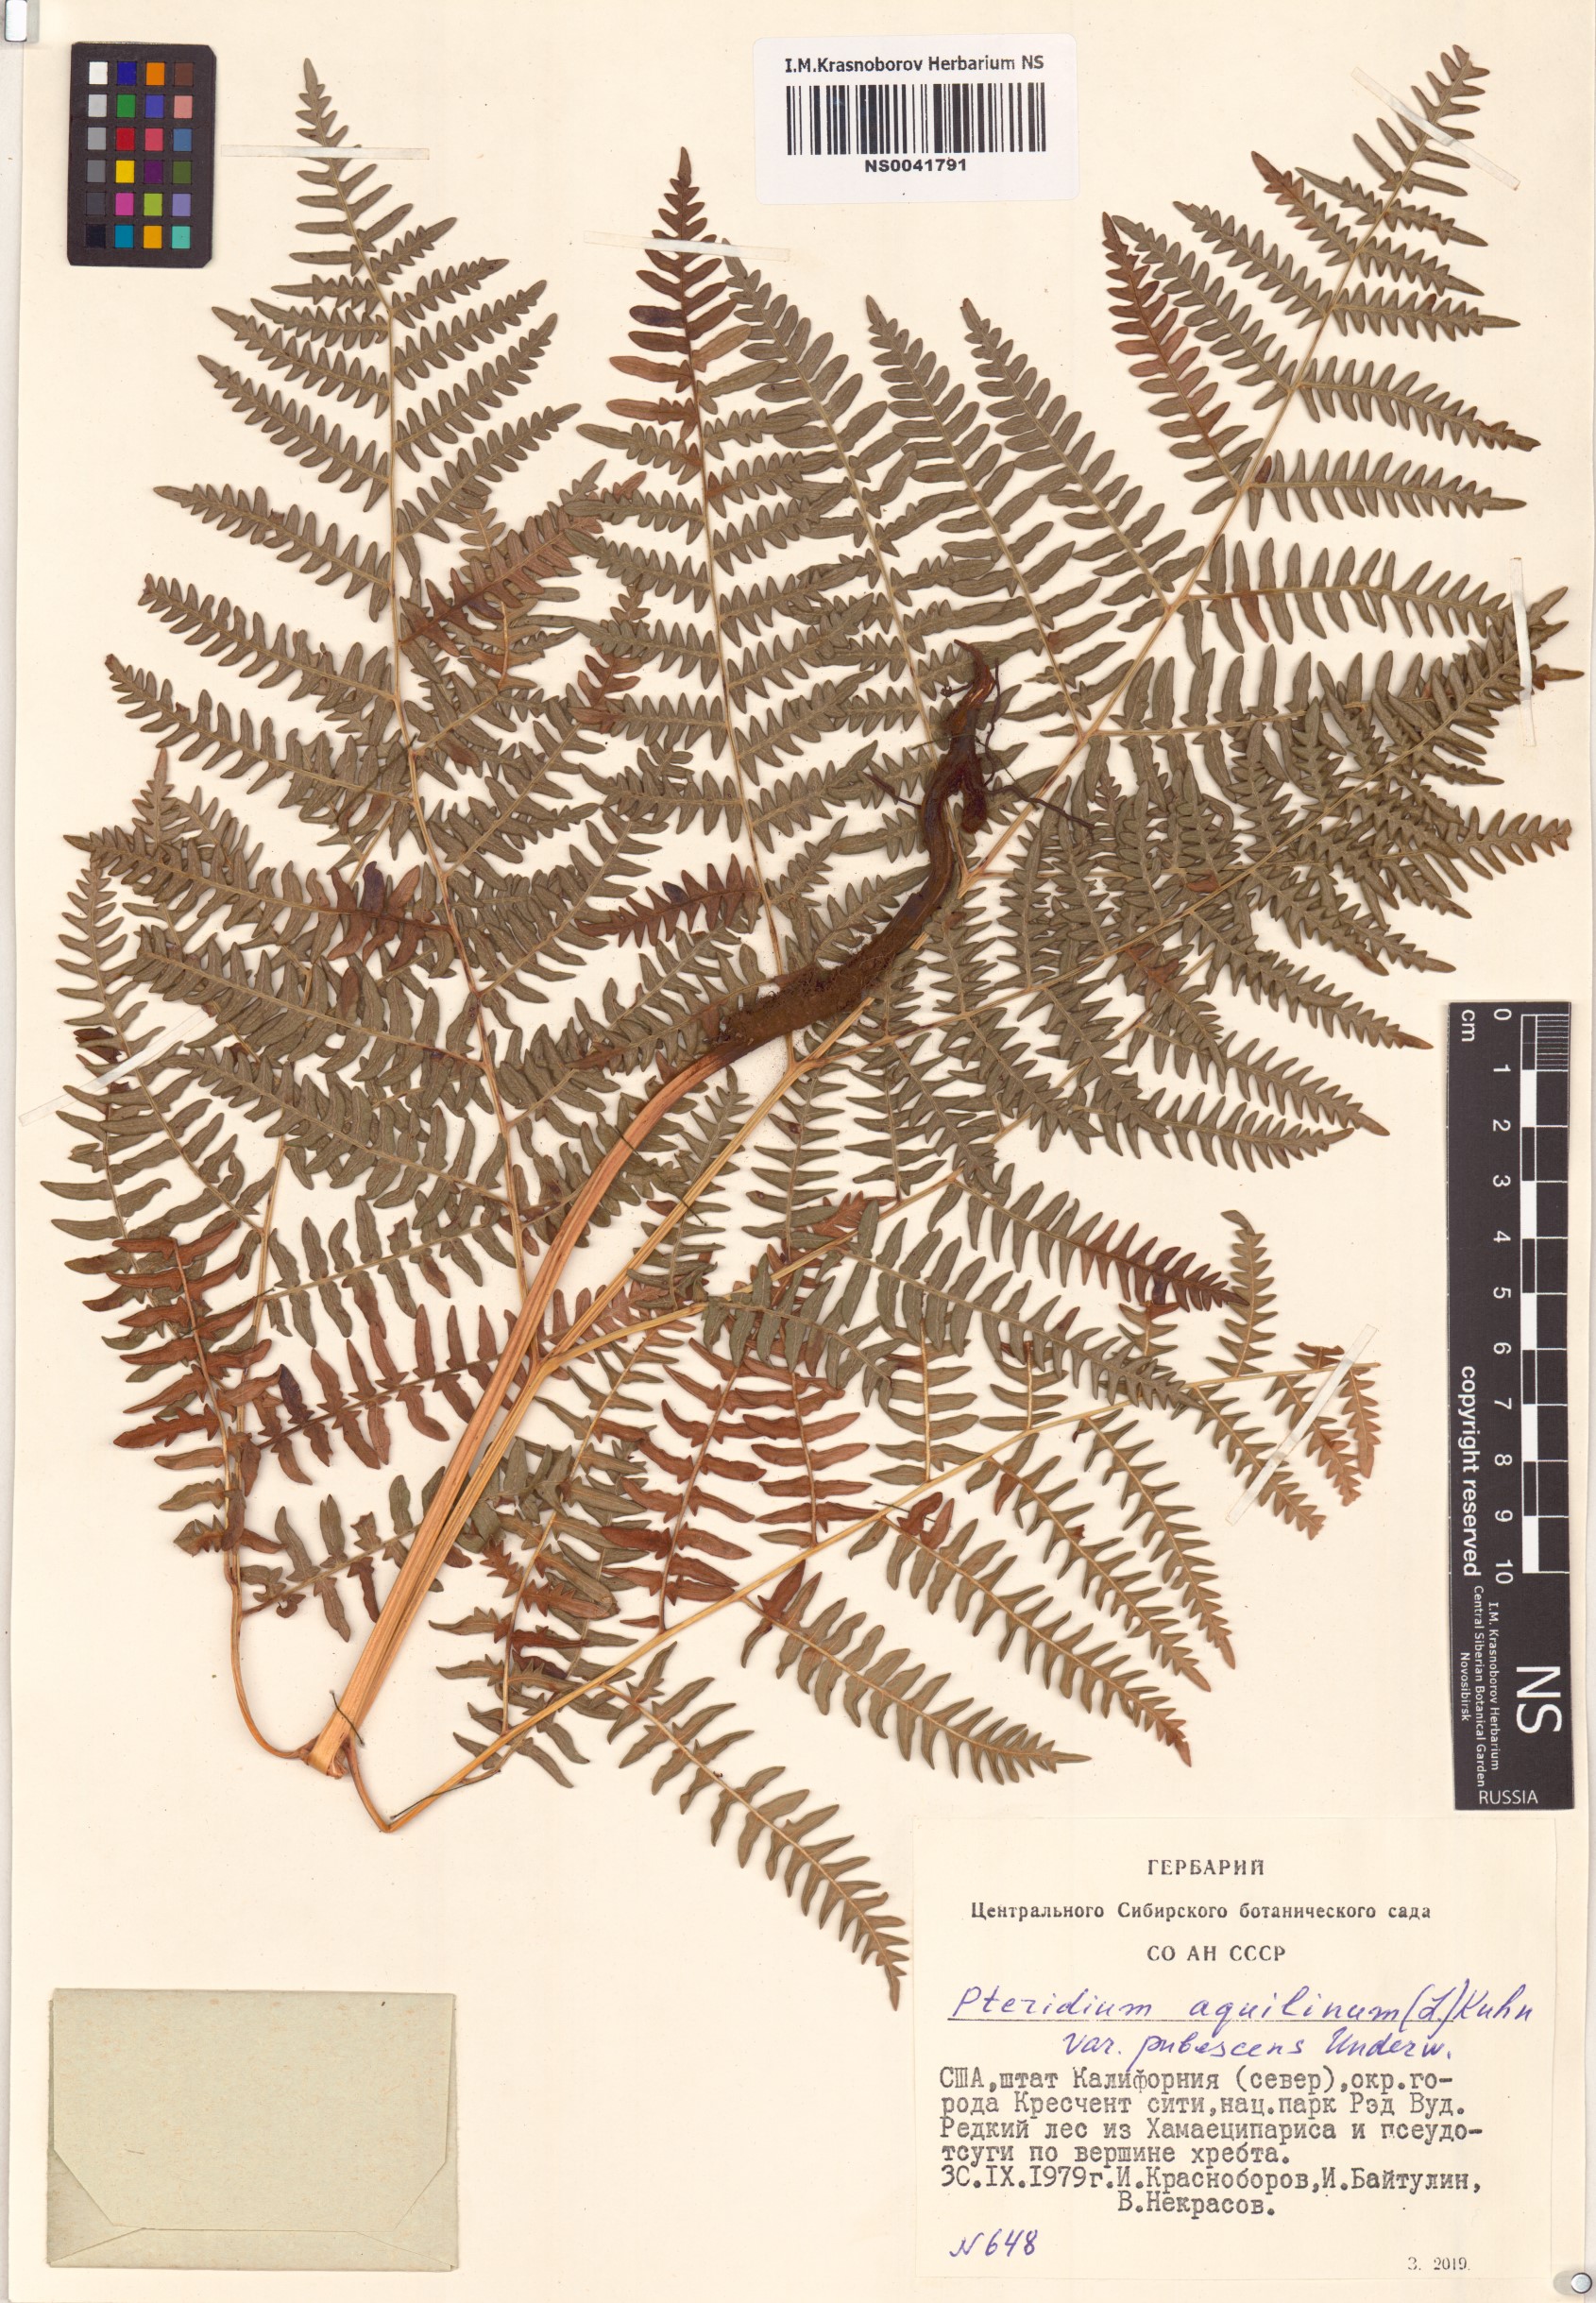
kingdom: Plantae
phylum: Tracheophyta
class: Polypodiopsida
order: Polypodiales
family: Dennstaedtiaceae
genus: Pteridium
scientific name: Pteridium aquilinum
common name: Bracken
